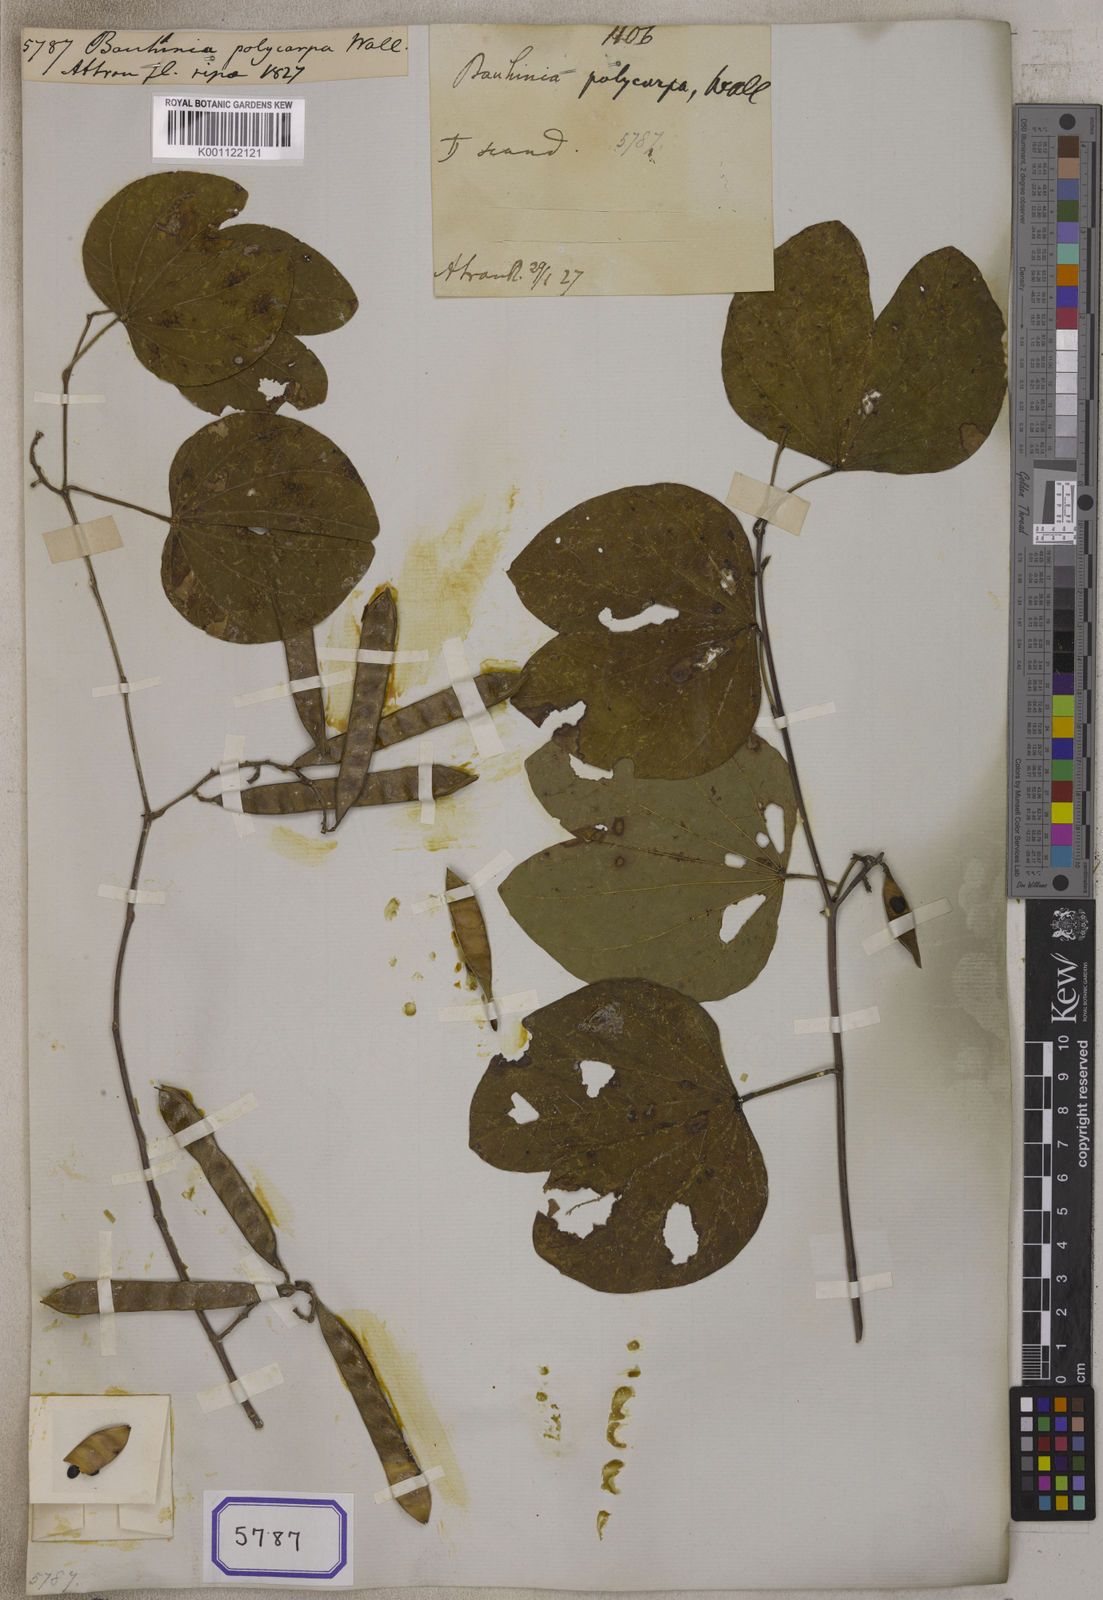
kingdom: Plantae
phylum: Tracheophyta
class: Magnoliopsida
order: Fabales
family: Fabaceae
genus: Bauhinia
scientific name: Bauhinia
